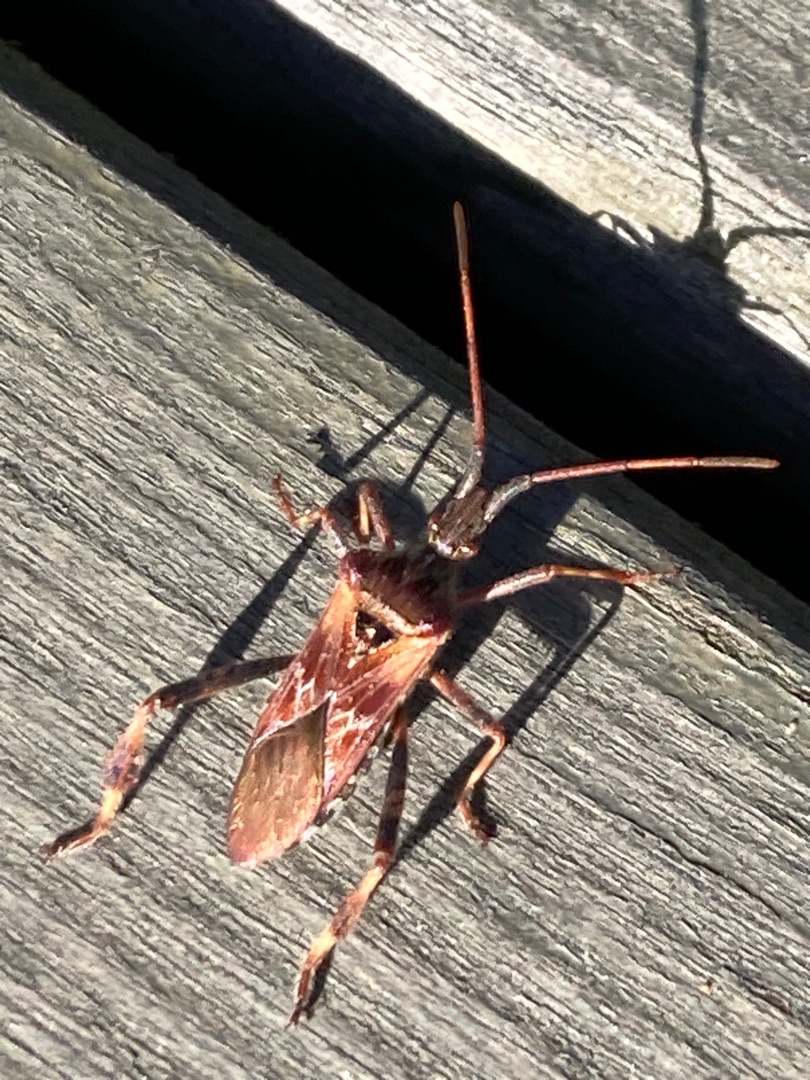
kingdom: Animalia
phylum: Arthropoda
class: Insecta
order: Hemiptera
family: Coreidae
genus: Leptoglossus
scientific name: Leptoglossus occidentalis
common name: Amerikansk fyrretæge
